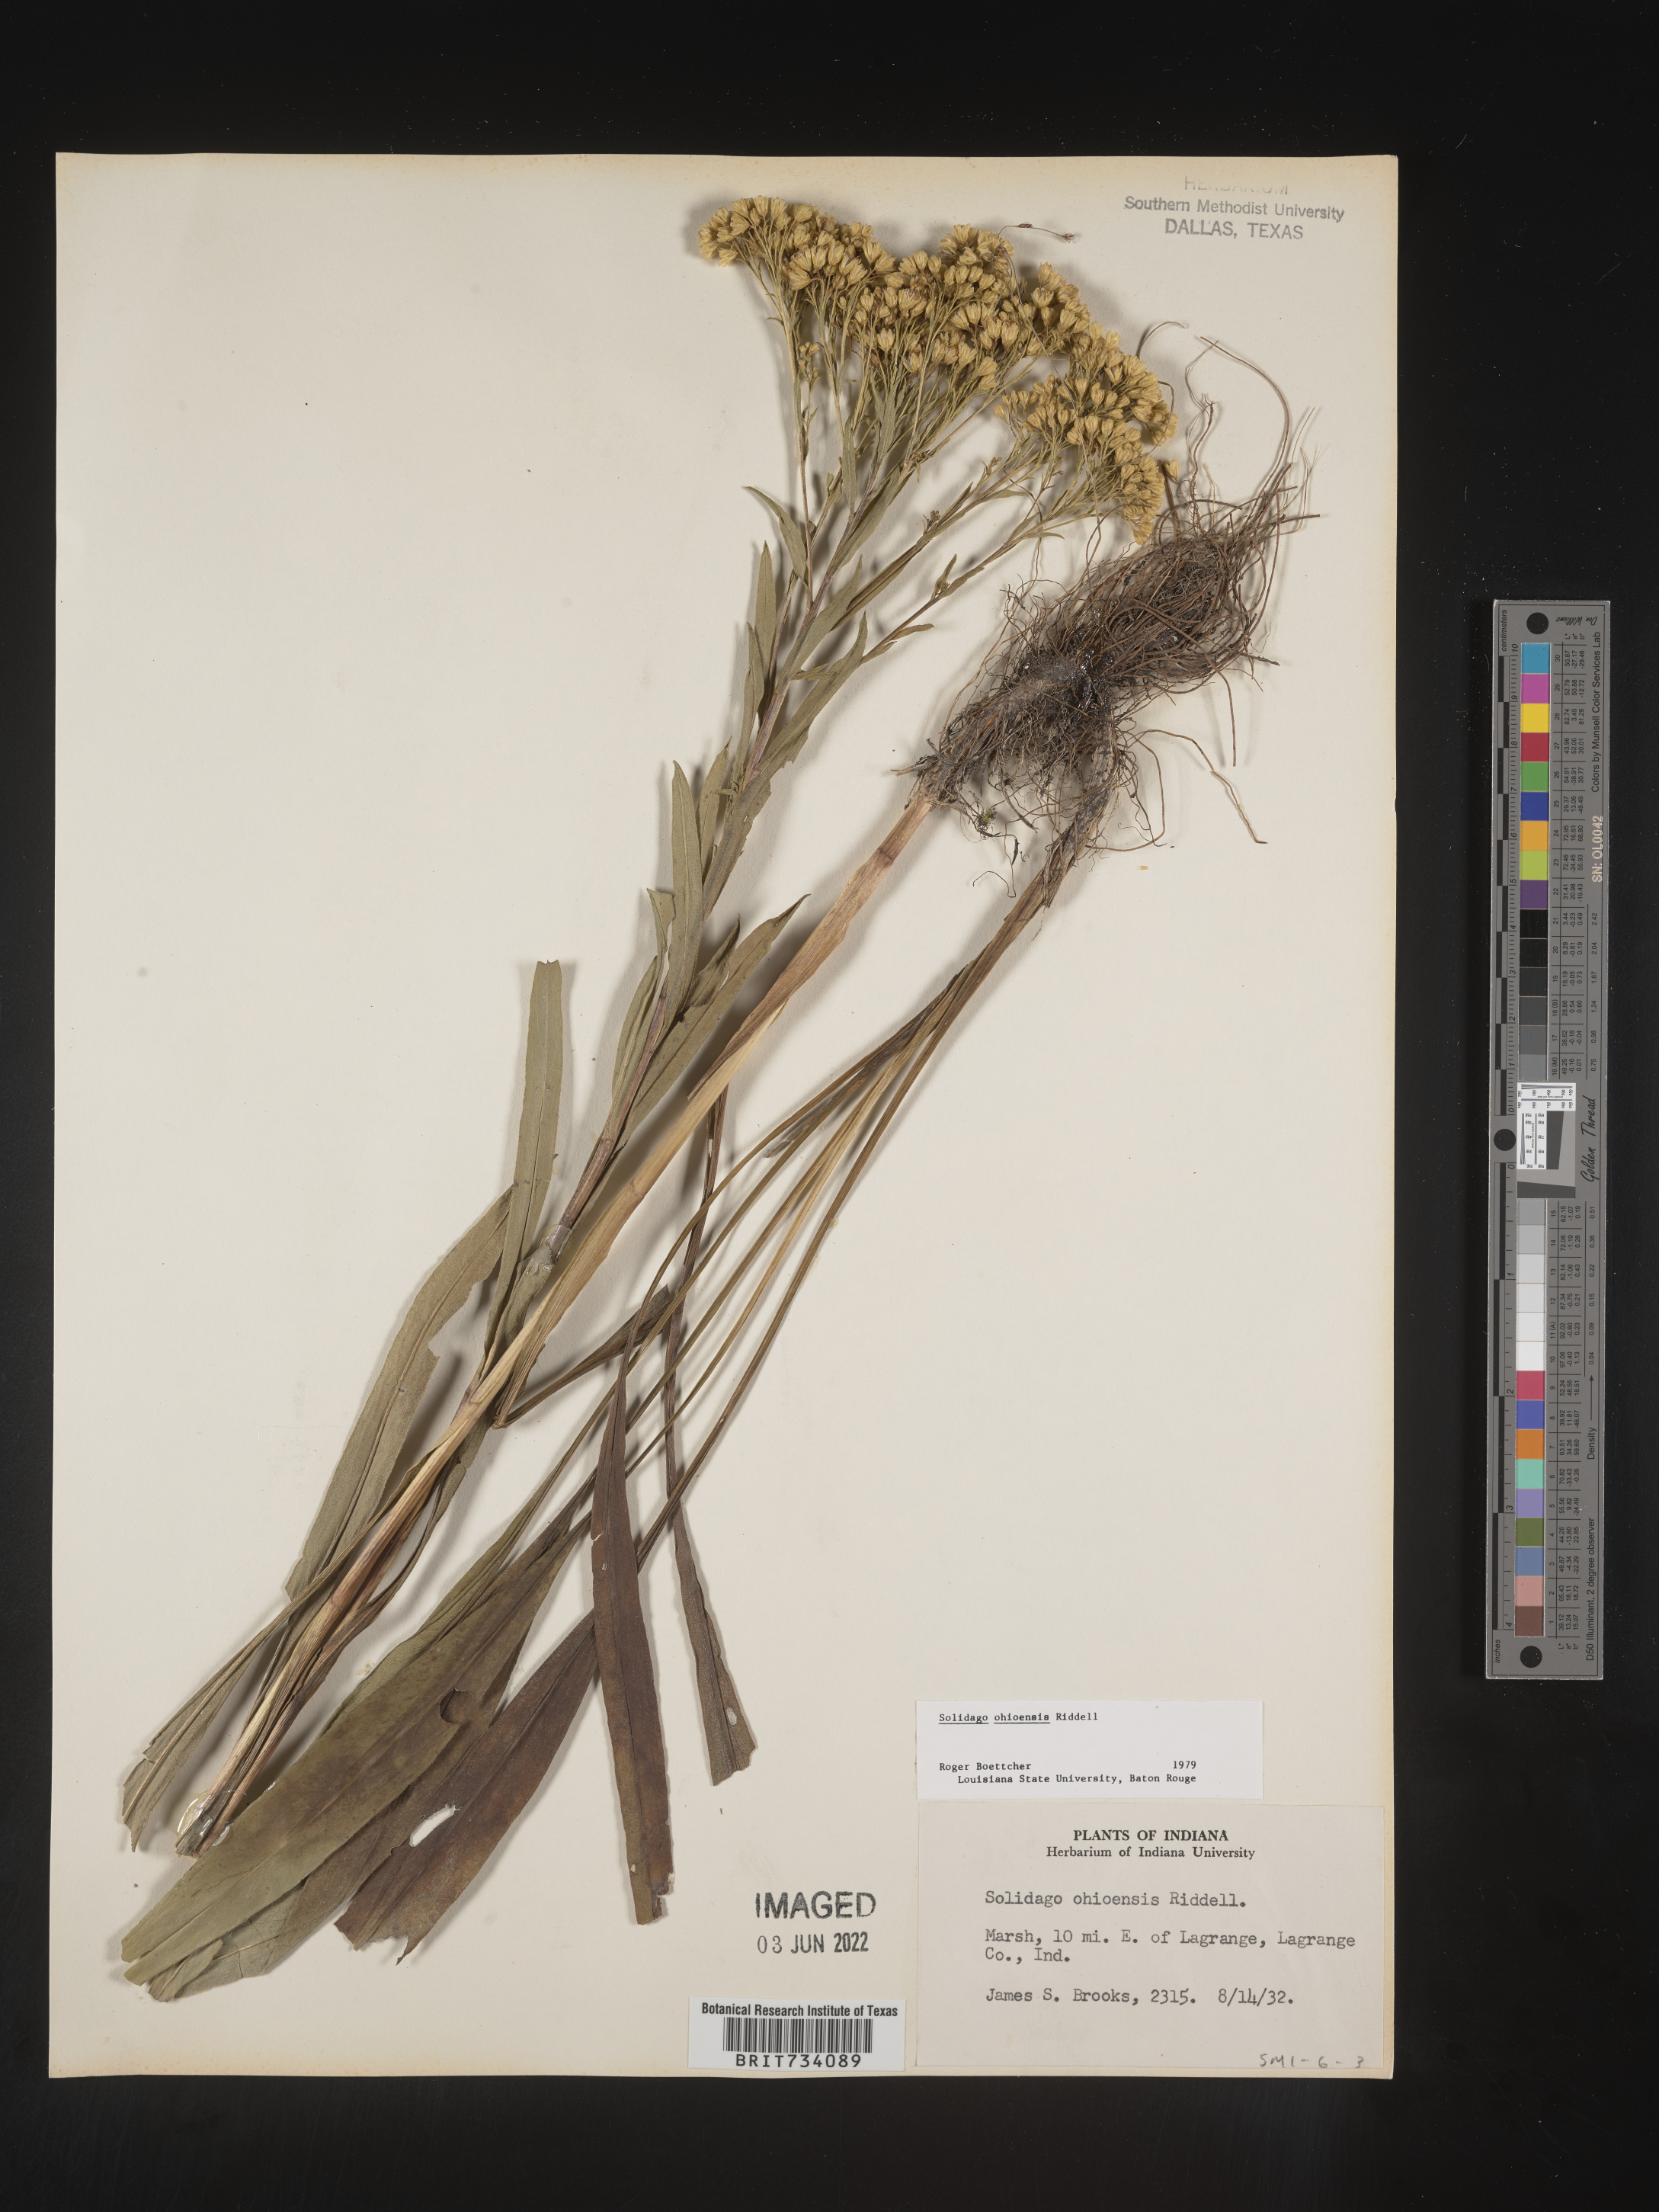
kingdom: Plantae
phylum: Tracheophyta
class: Magnoliopsida
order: Asterales
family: Asteraceae
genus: Solidago
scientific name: Solidago nitida
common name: Shiny goldenrod
